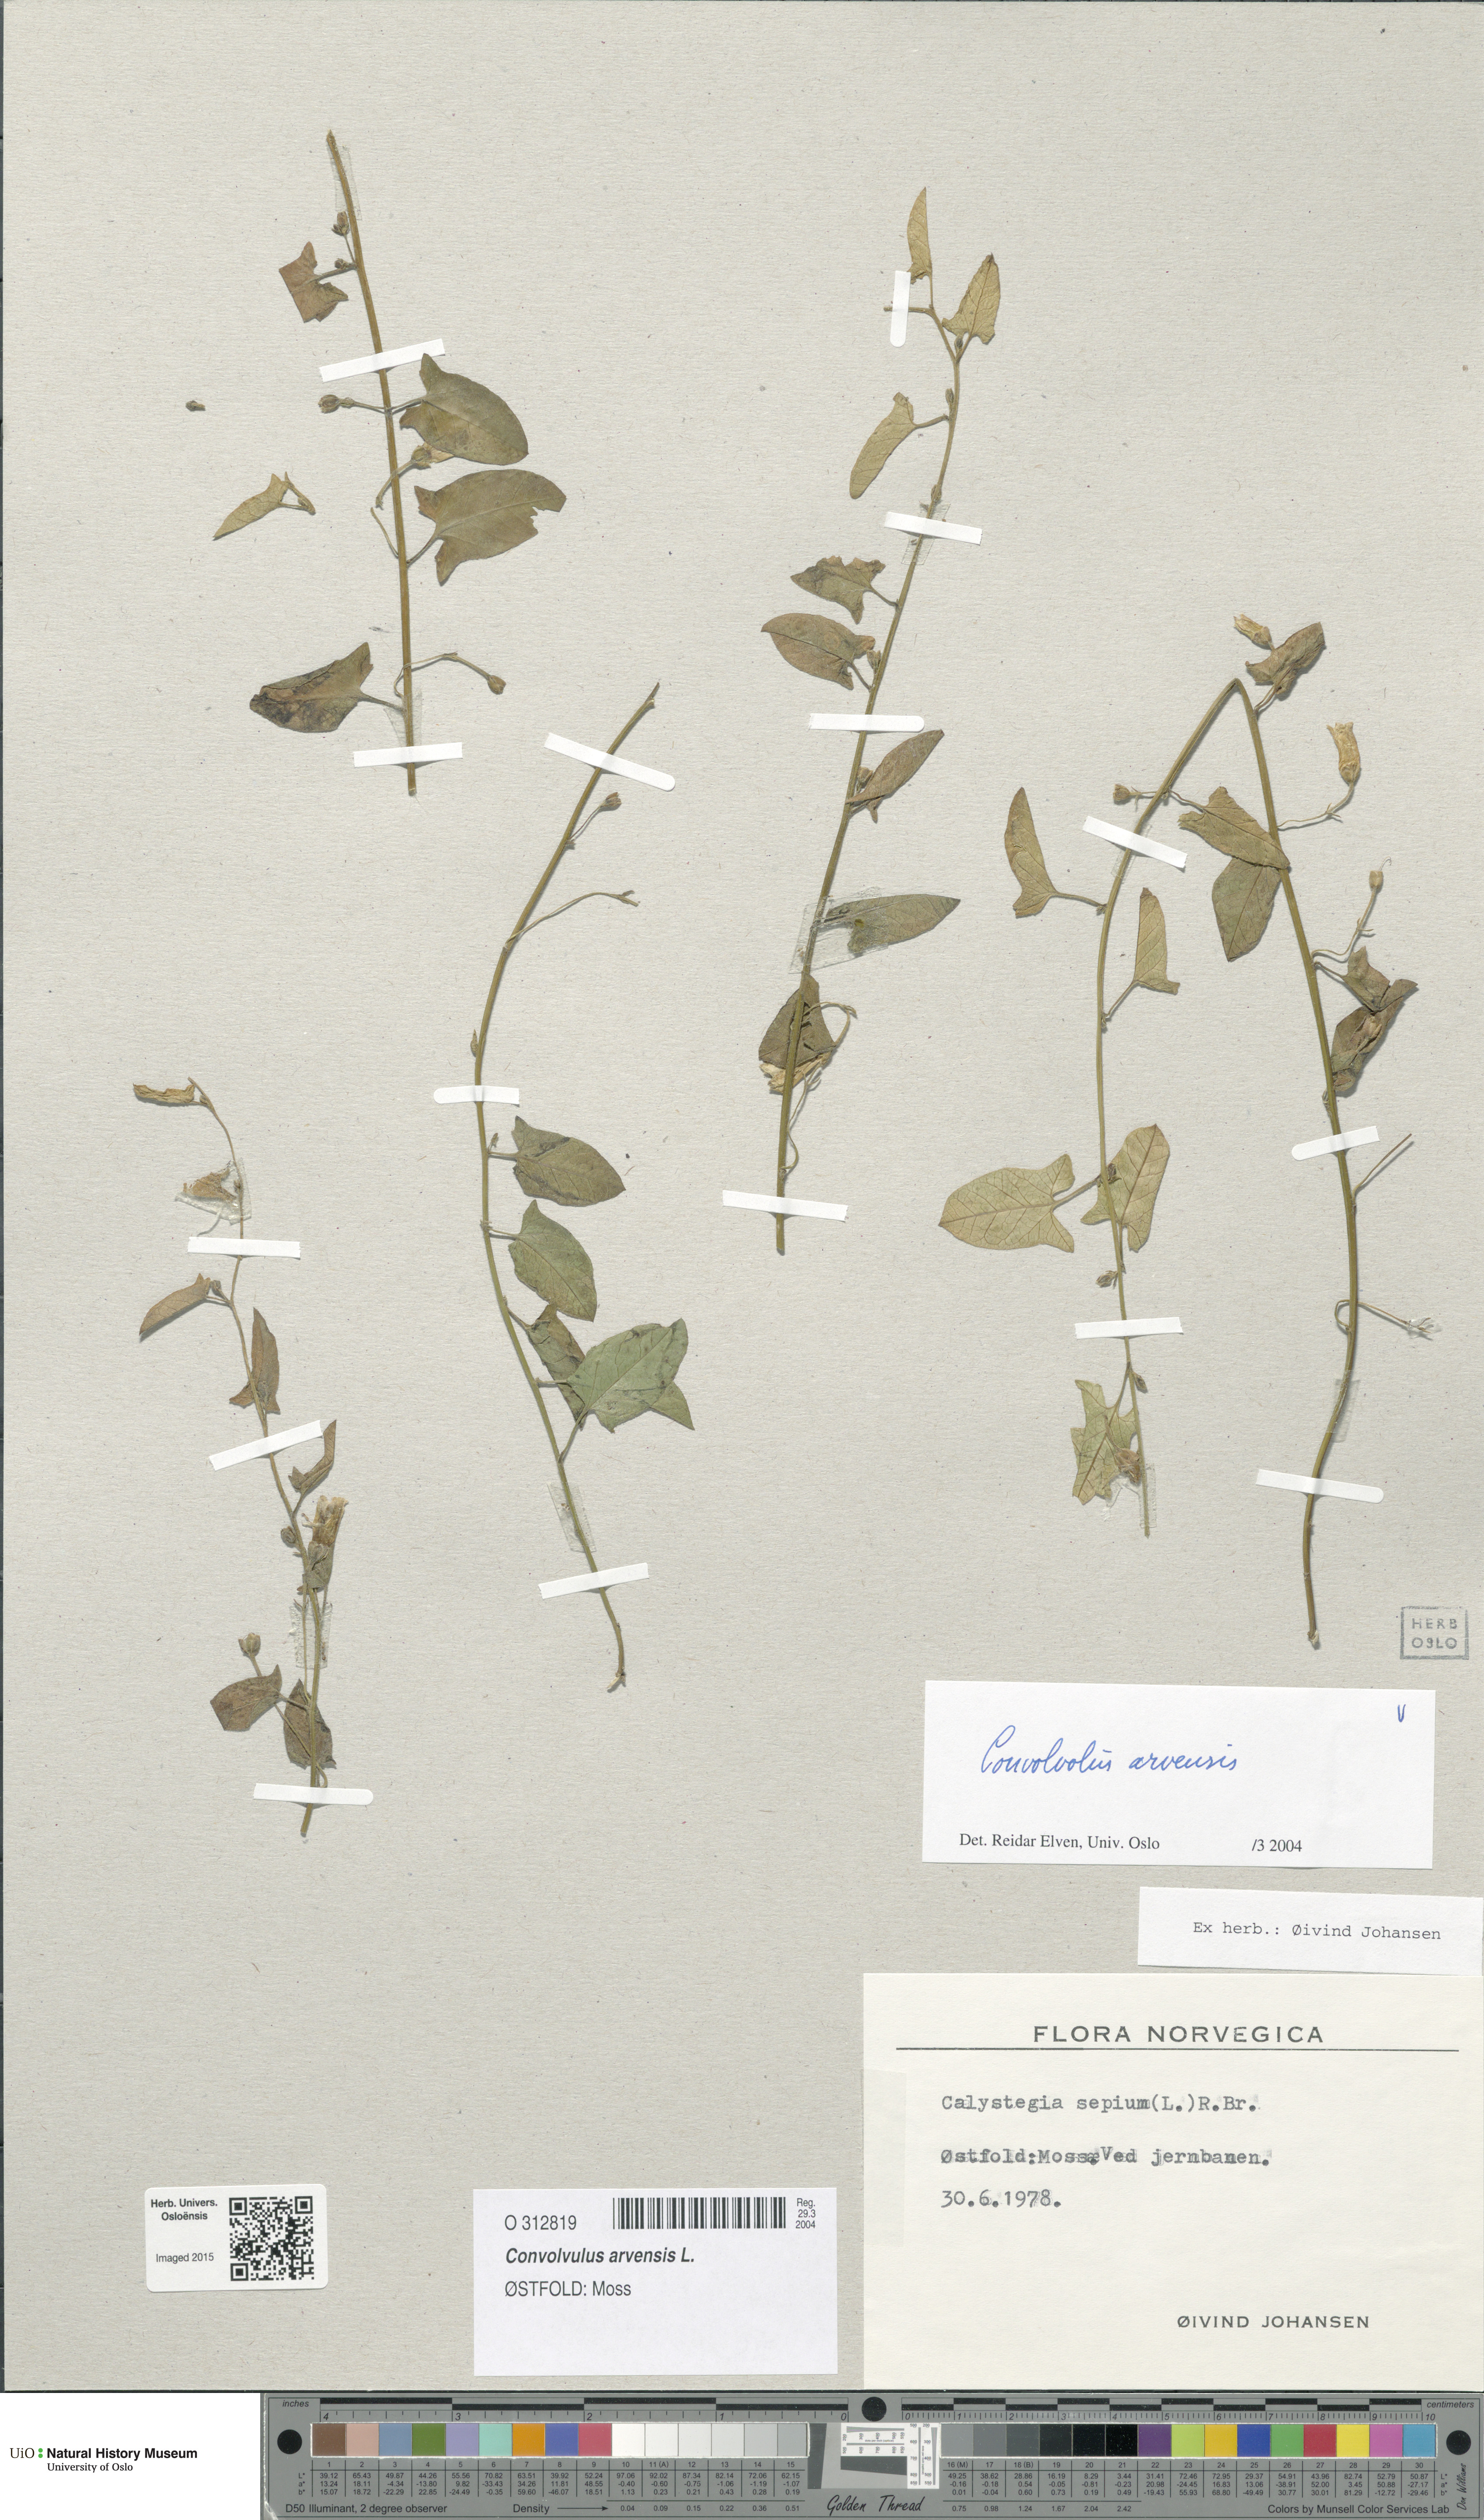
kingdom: Plantae
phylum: Tracheophyta
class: Magnoliopsida
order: Solanales
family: Convolvulaceae
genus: Convolvulus
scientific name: Convolvulus arvensis
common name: Field bindweed
